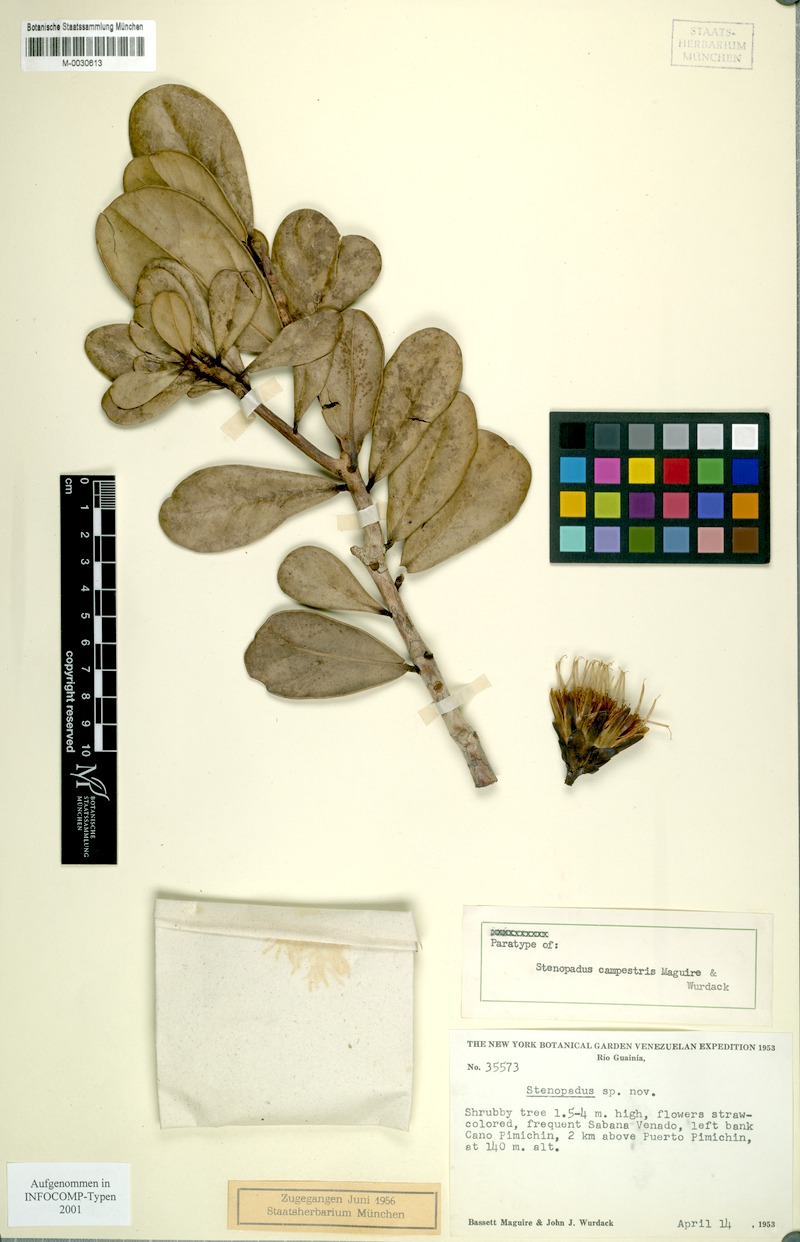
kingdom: Plantae
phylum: Tracheophyta
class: Magnoliopsida
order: Asterales
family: Asteraceae
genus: Stenopadus
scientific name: Stenopadus campestris
